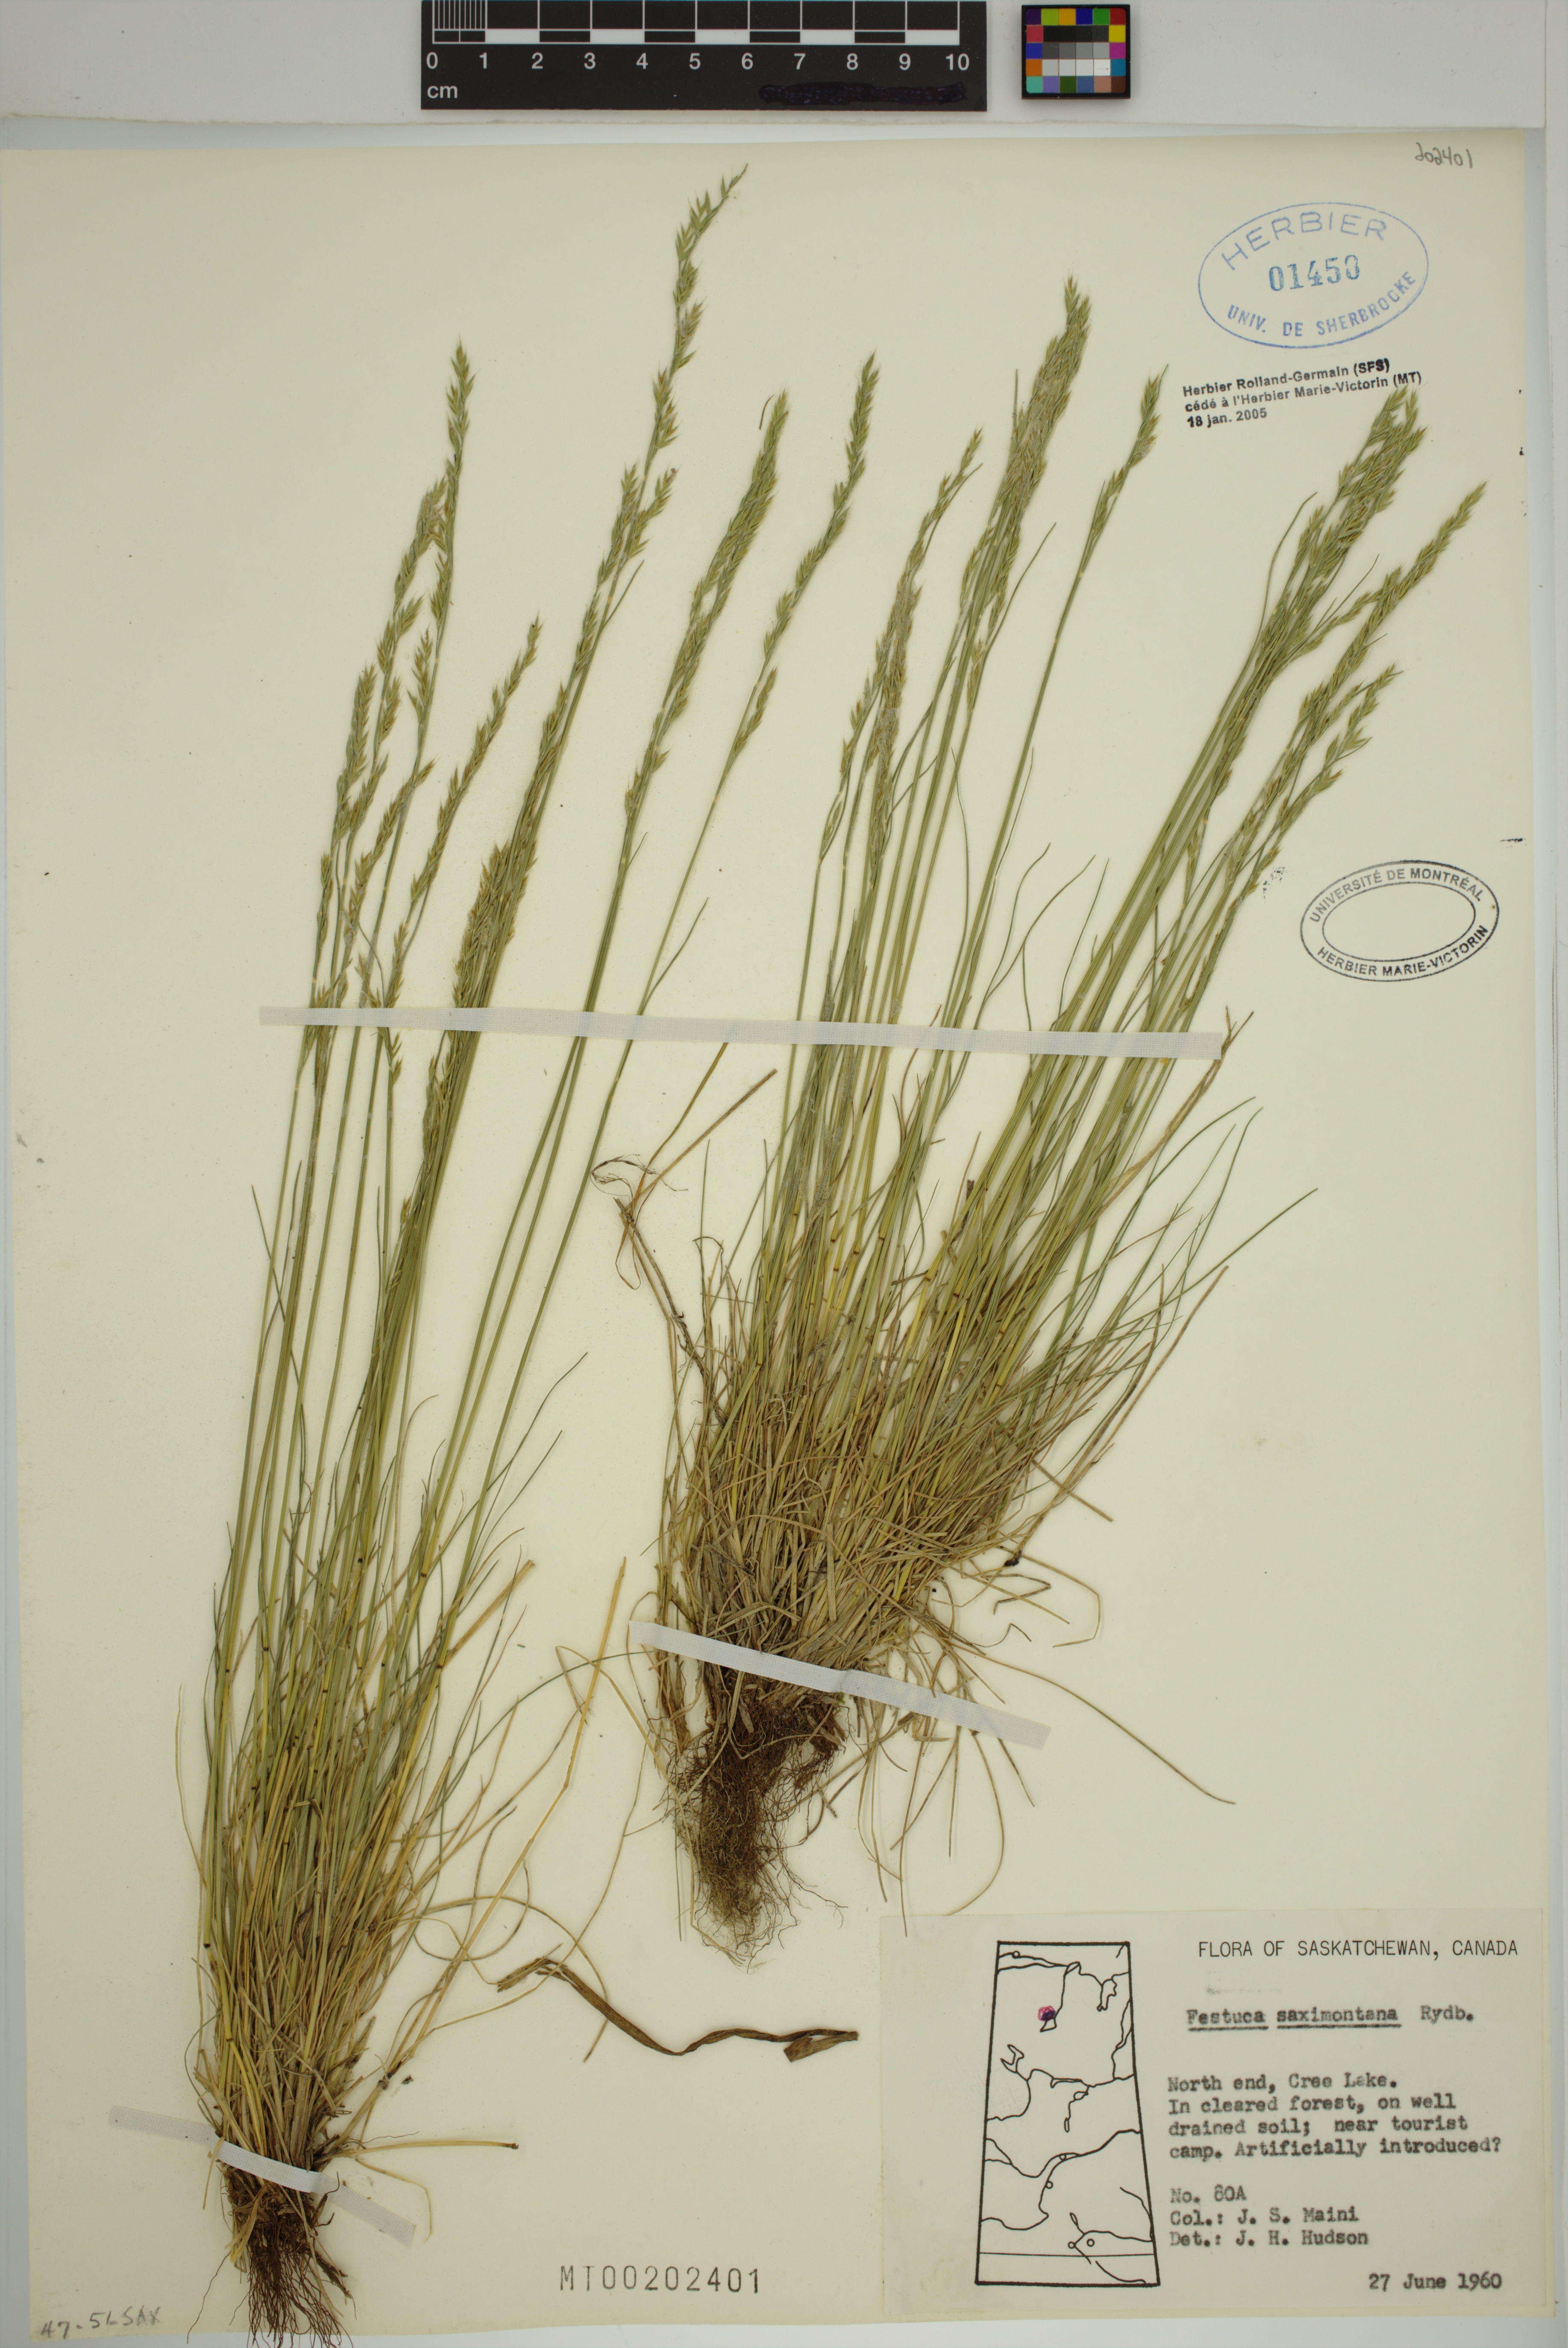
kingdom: Plantae
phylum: Tracheophyta
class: Liliopsida
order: Poales
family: Poaceae
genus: Festuca
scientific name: Festuca saximontana
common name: Mountain fescue
